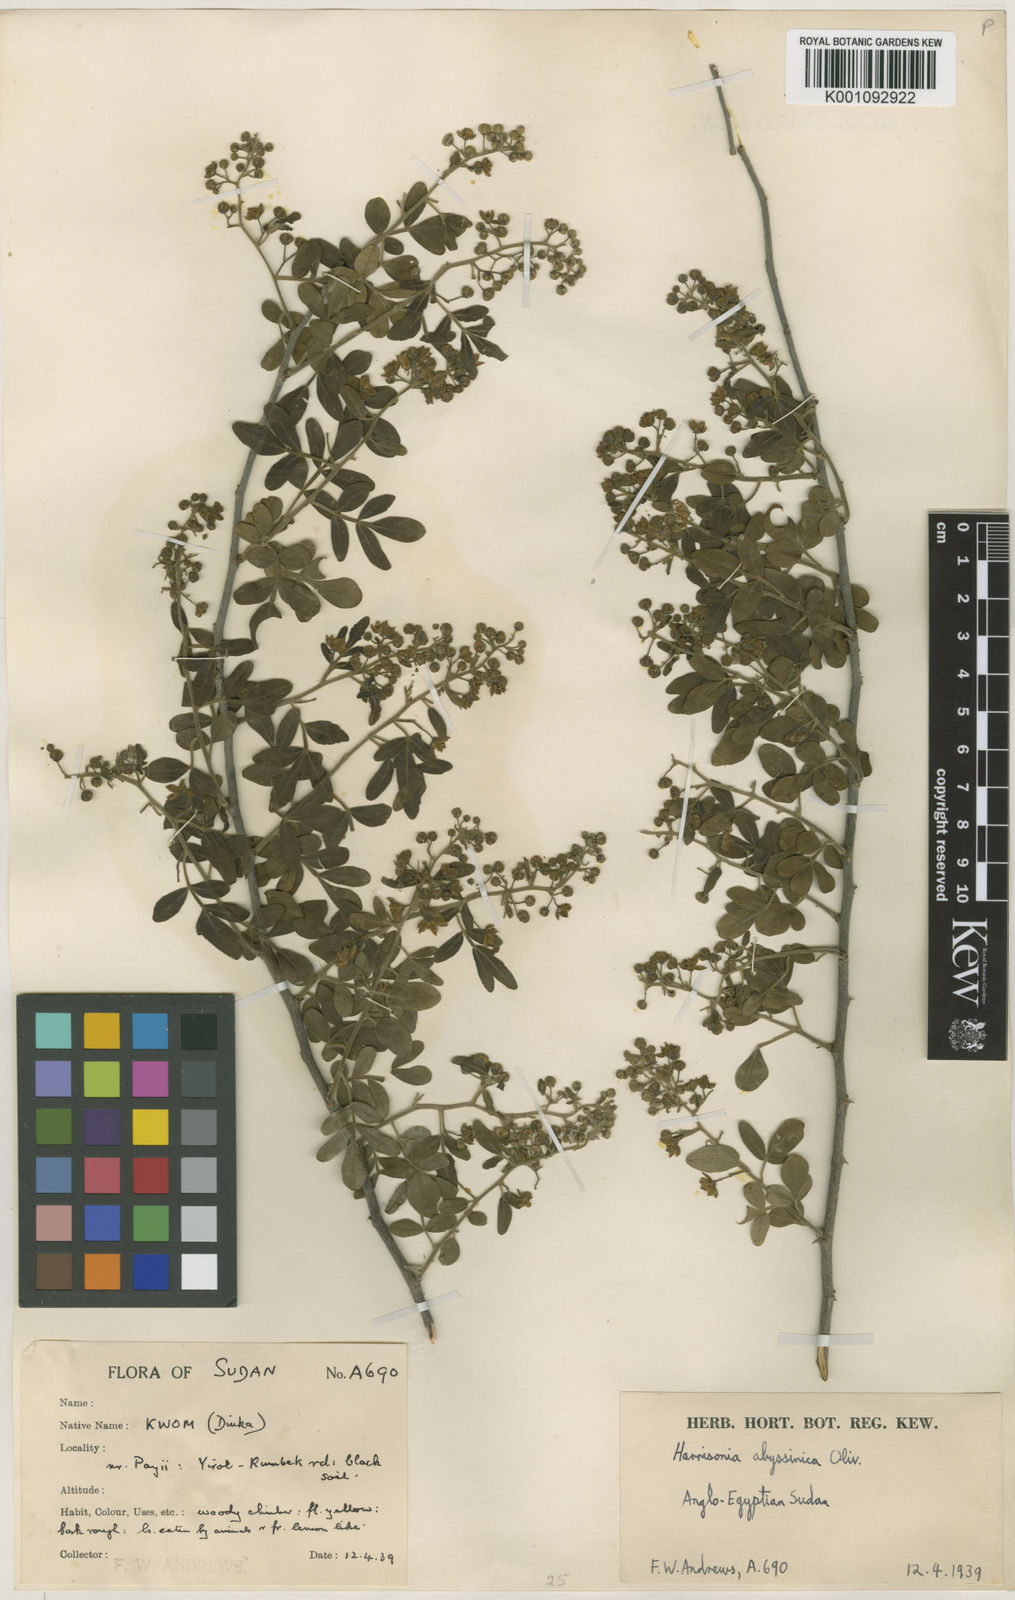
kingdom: Plantae
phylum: Tracheophyta
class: Magnoliopsida
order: Sapindales
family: Rutaceae
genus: Harrisonia
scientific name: Harrisonia abyssinica
